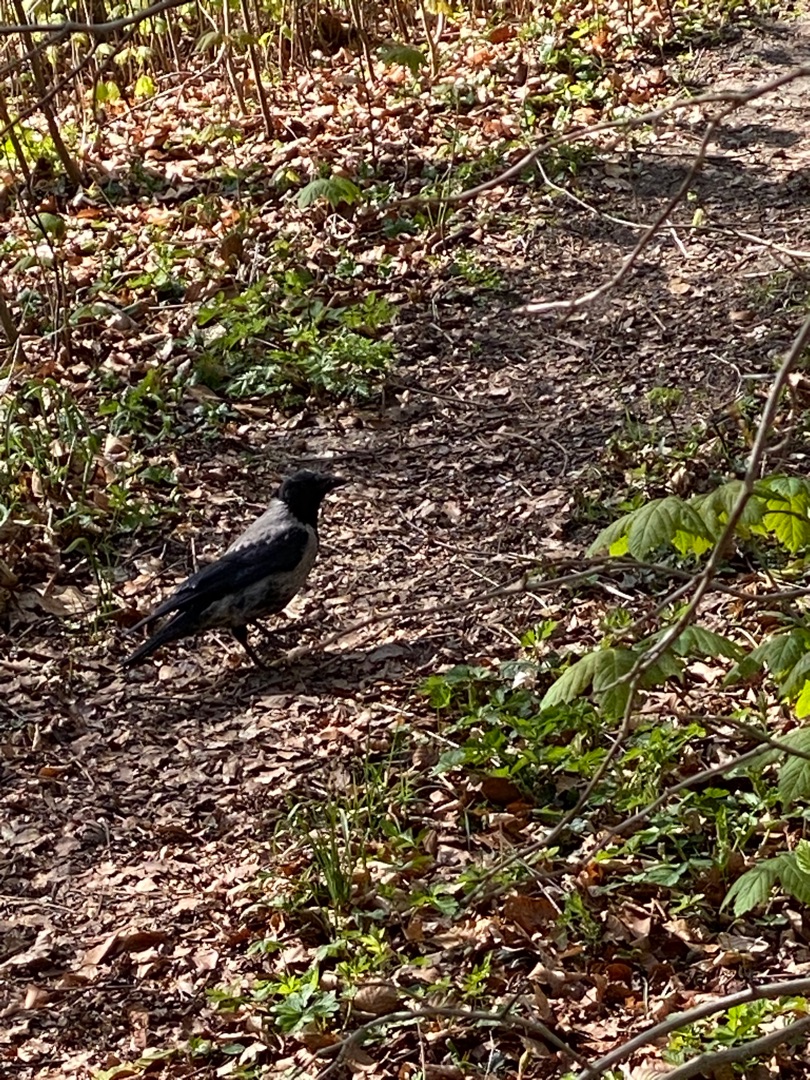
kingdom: Animalia
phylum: Chordata
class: Aves
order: Passeriformes
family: Corvidae
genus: Corvus
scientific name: Corvus cornix
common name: Gråkrage
